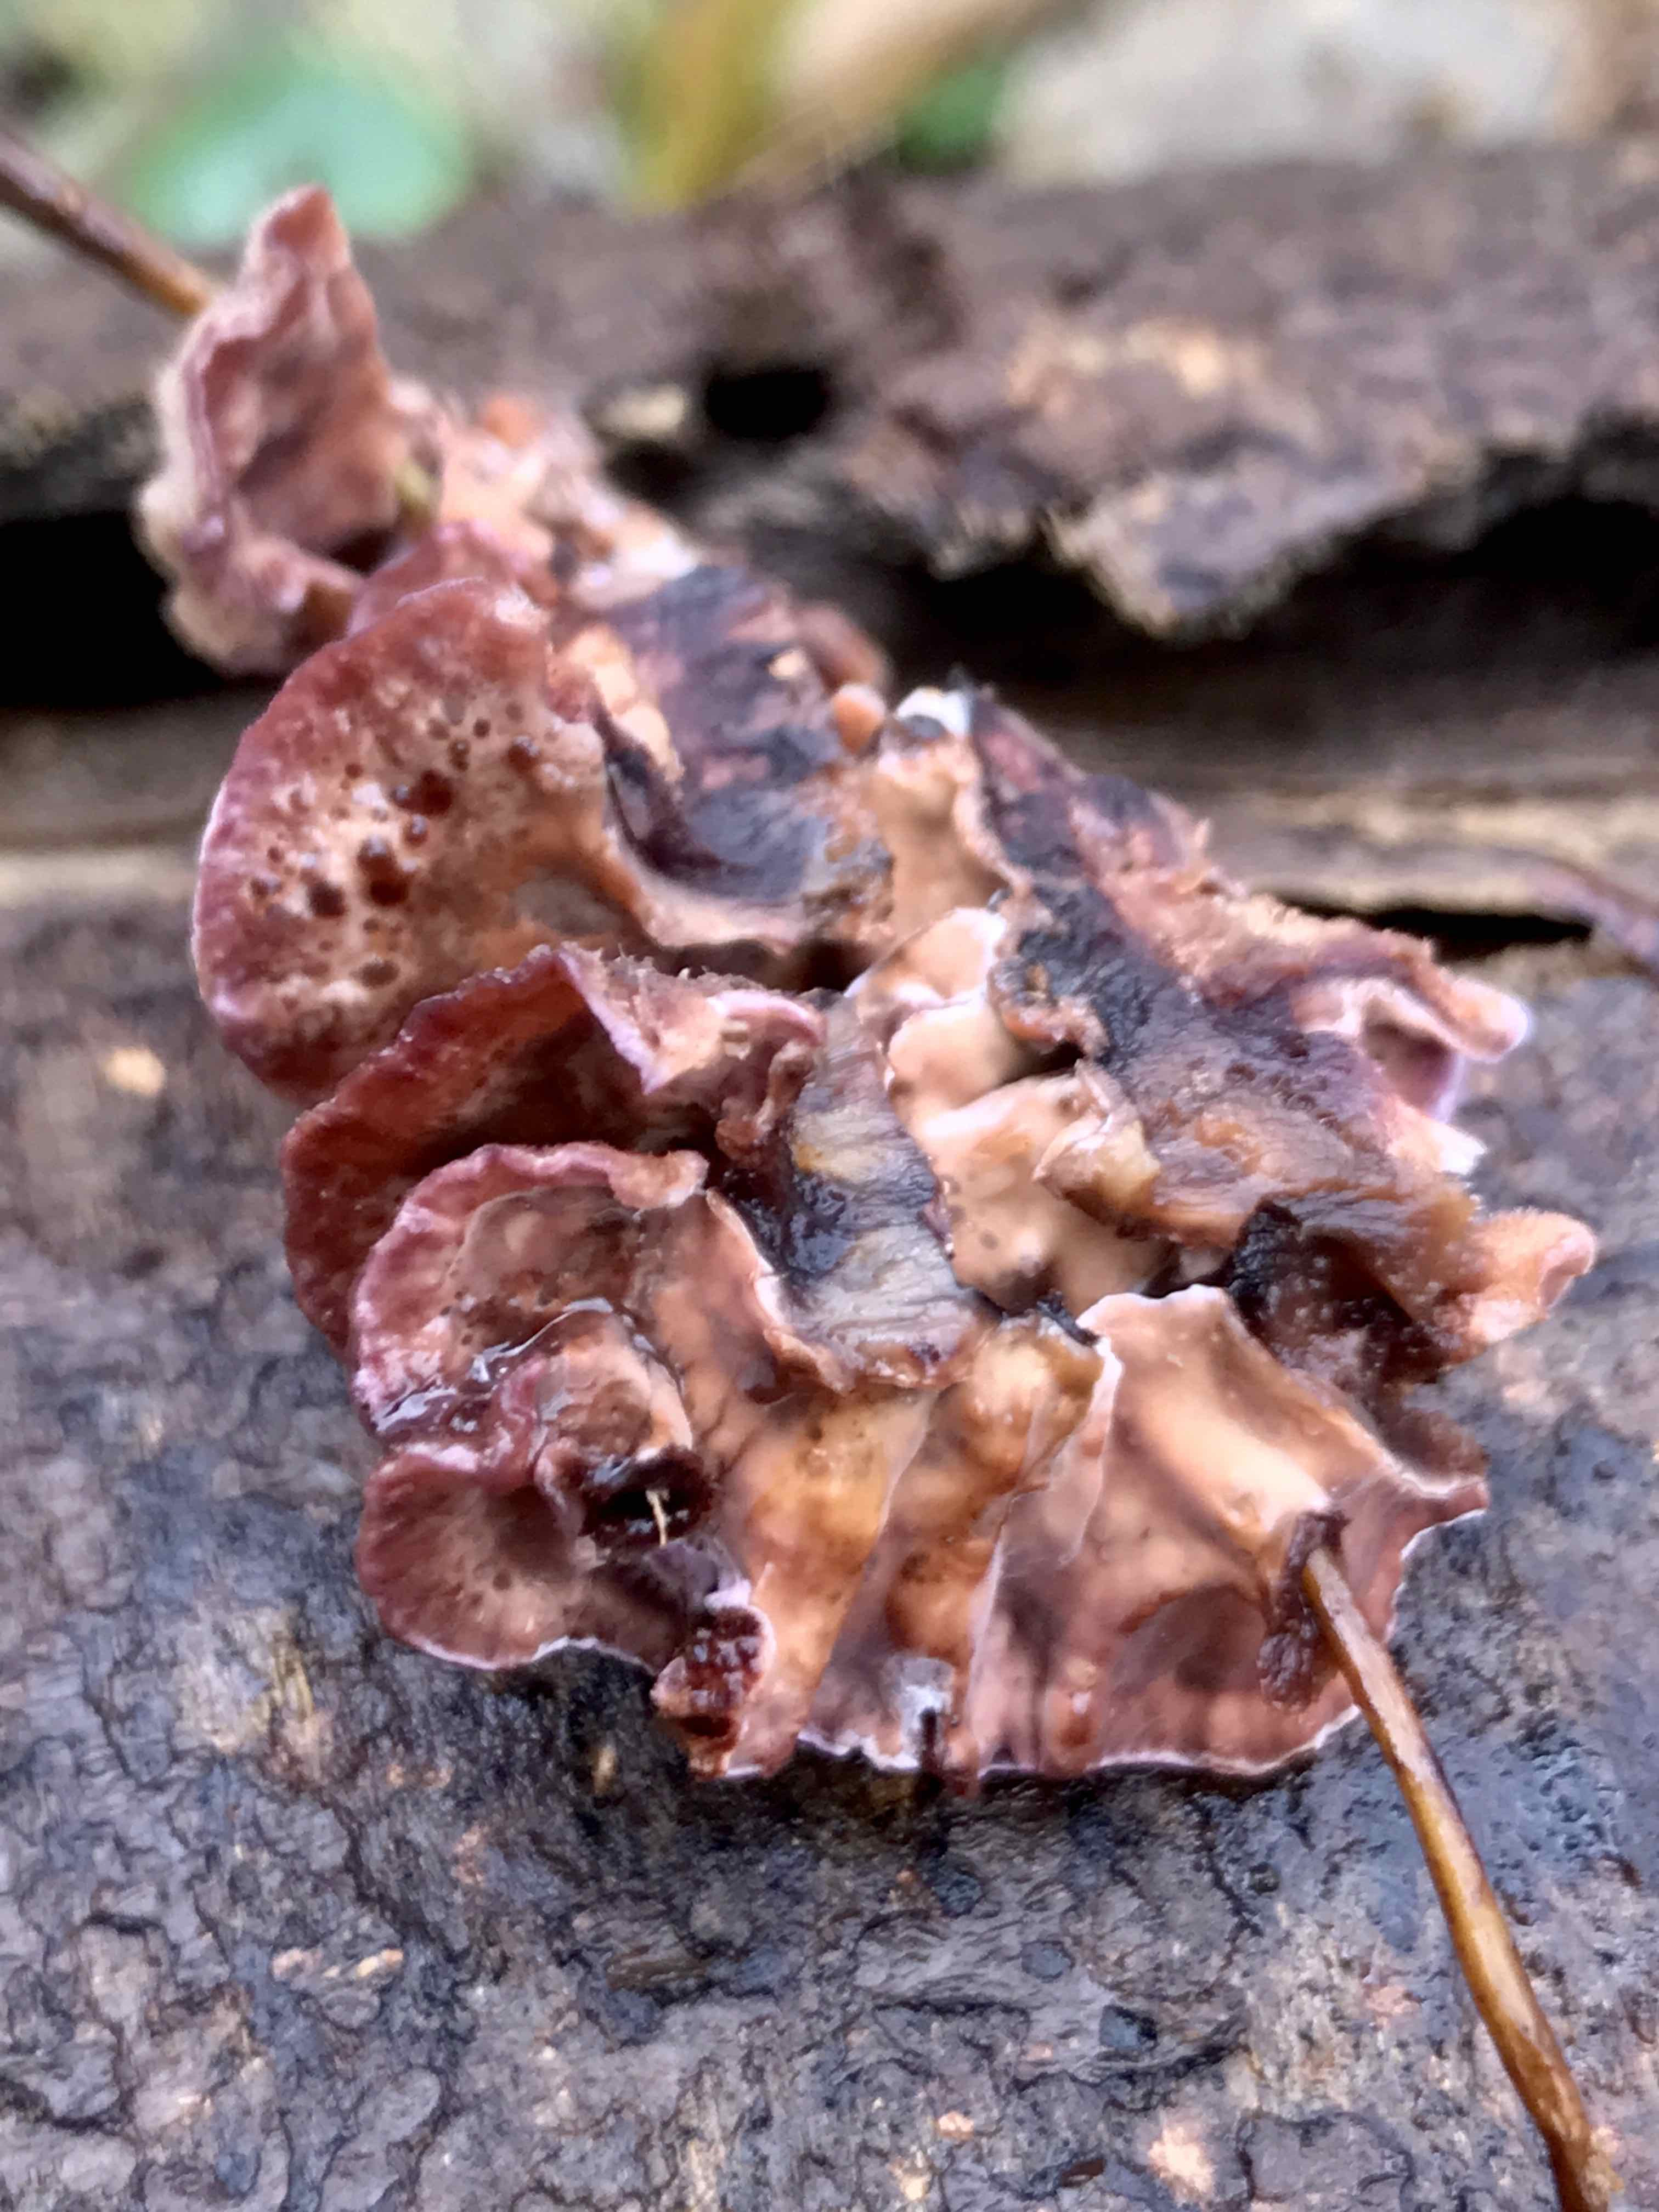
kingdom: Fungi
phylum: Basidiomycota
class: Agaricomycetes
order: Agaricales
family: Cyphellaceae
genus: Chondrostereum
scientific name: Chondrostereum purpureum
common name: purpurlædersvamp
